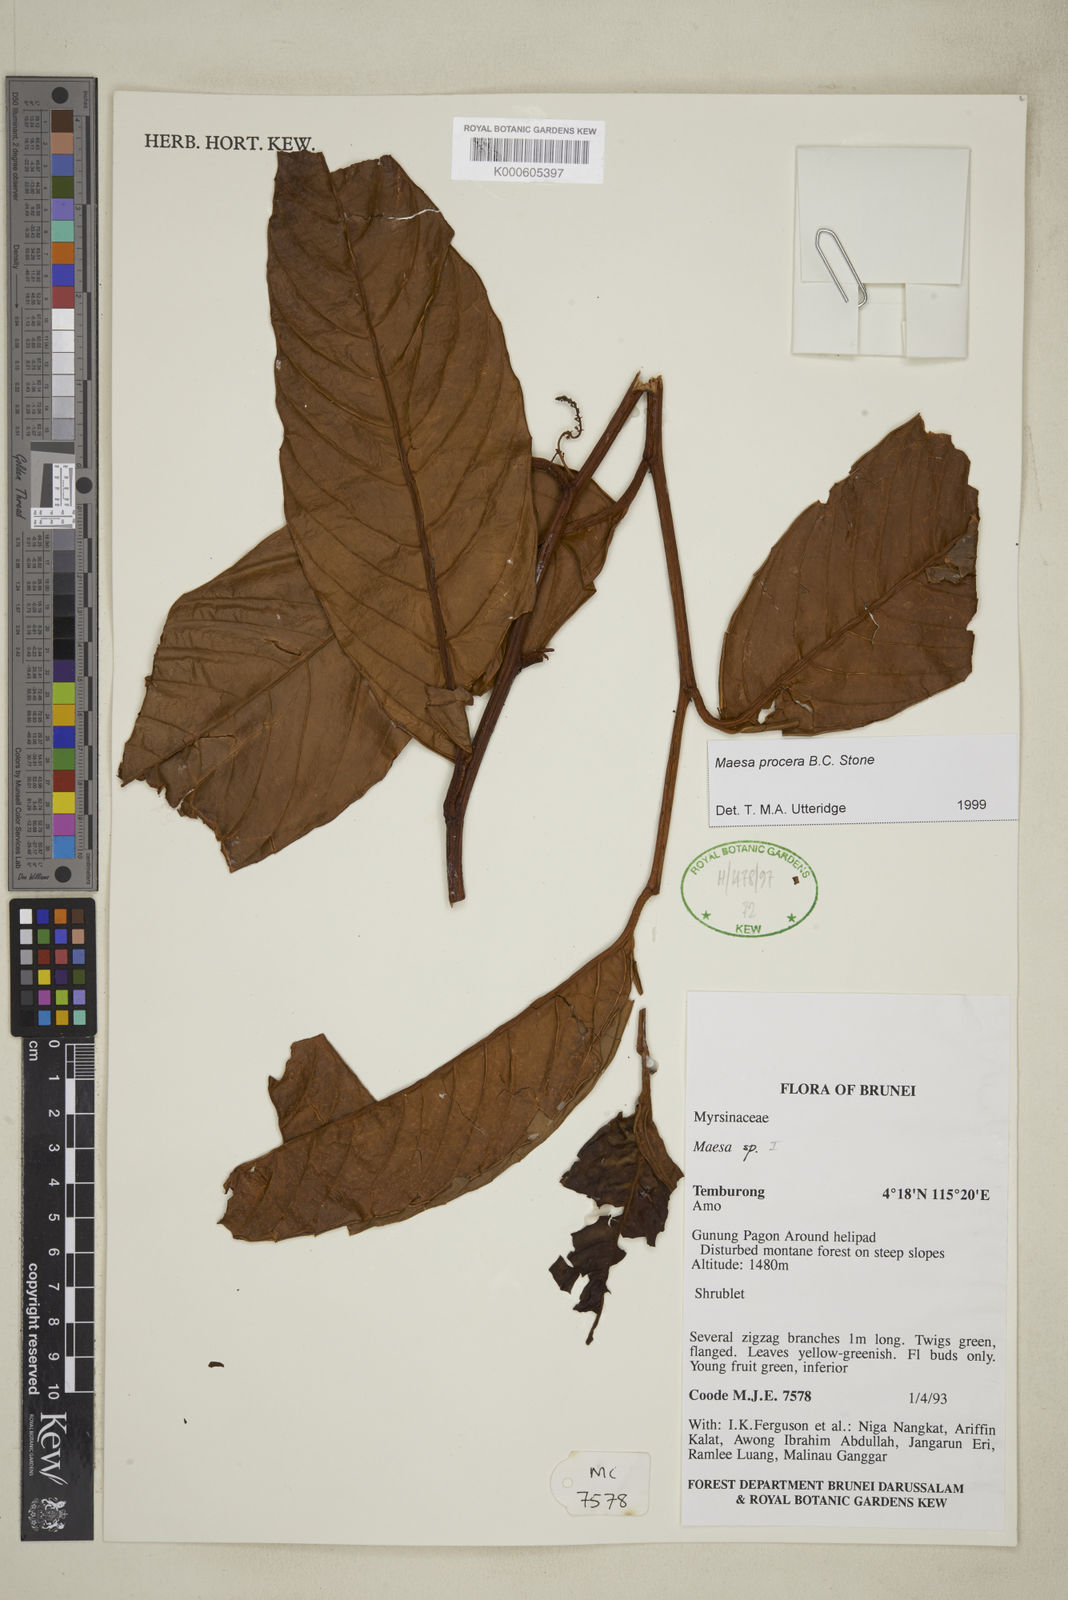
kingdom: Plantae
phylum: Tracheophyta
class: Magnoliopsida
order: Ericales
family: Primulaceae
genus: Maesa
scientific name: Maesa procera
